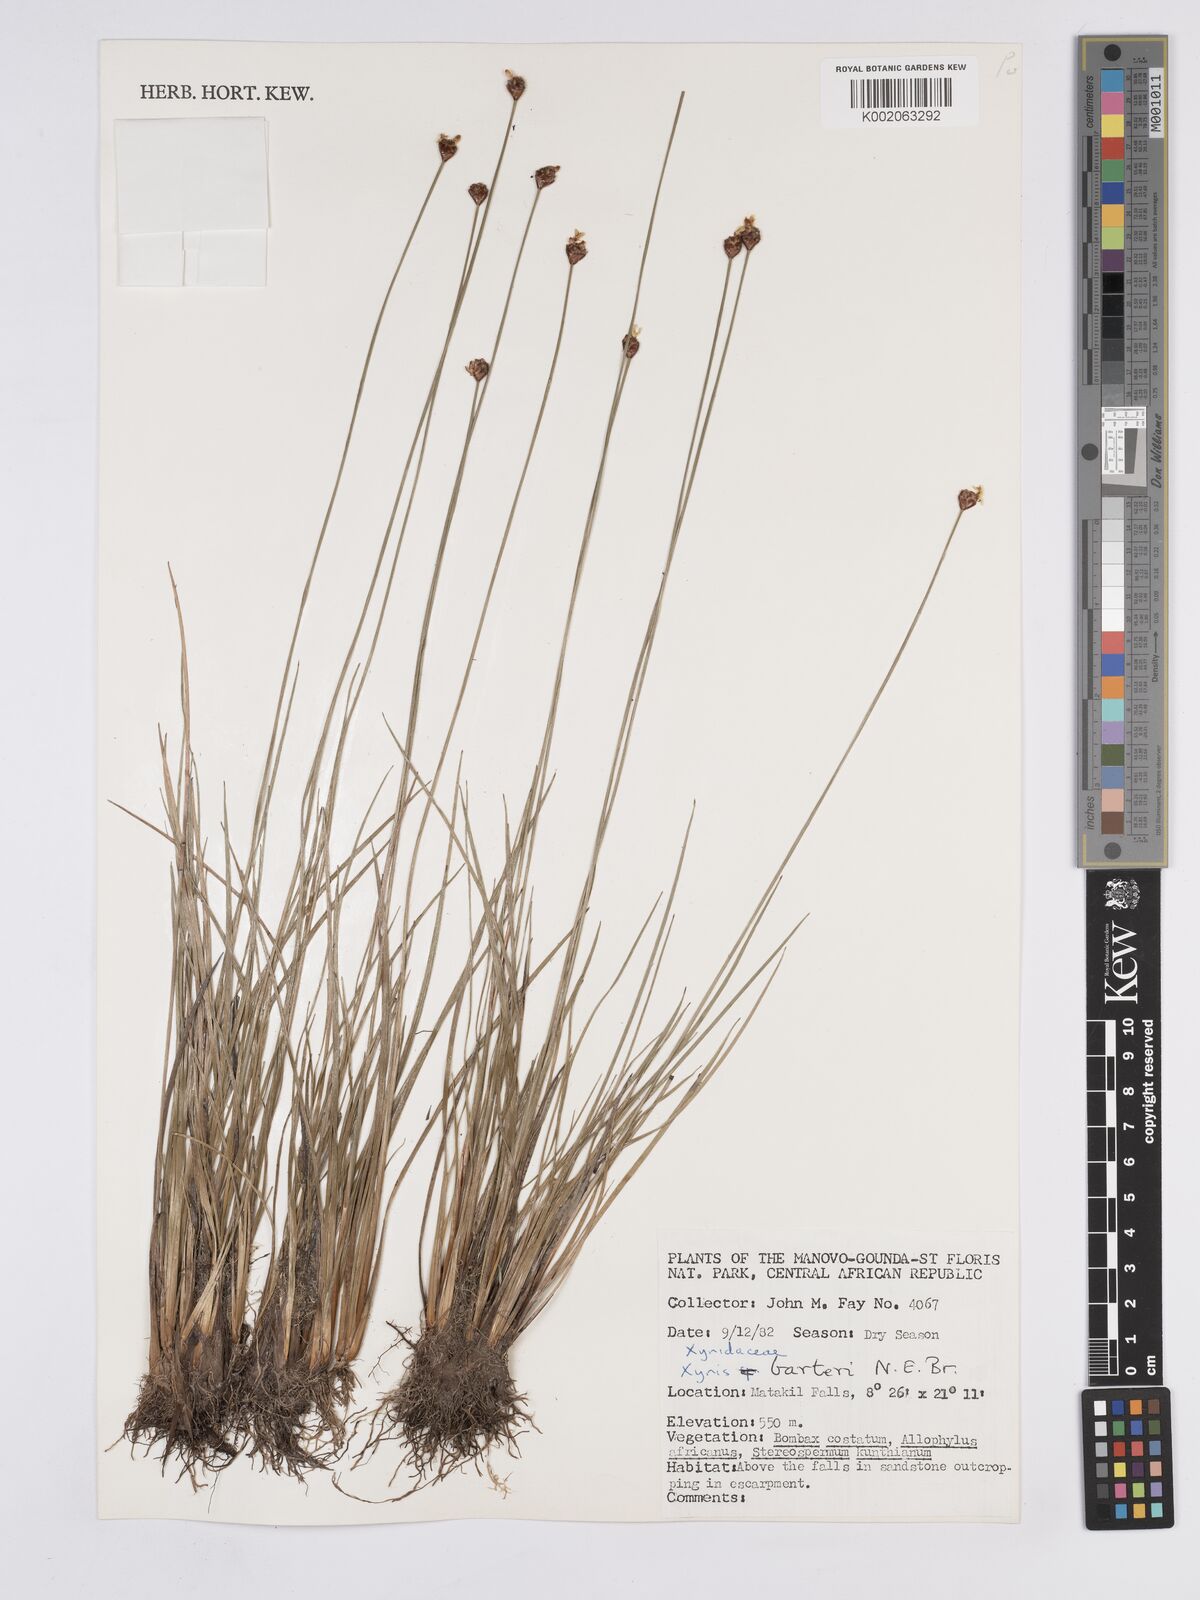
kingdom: Plantae
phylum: Tracheophyta
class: Liliopsida
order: Poales
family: Xyridaceae
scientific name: Xyridaceae
